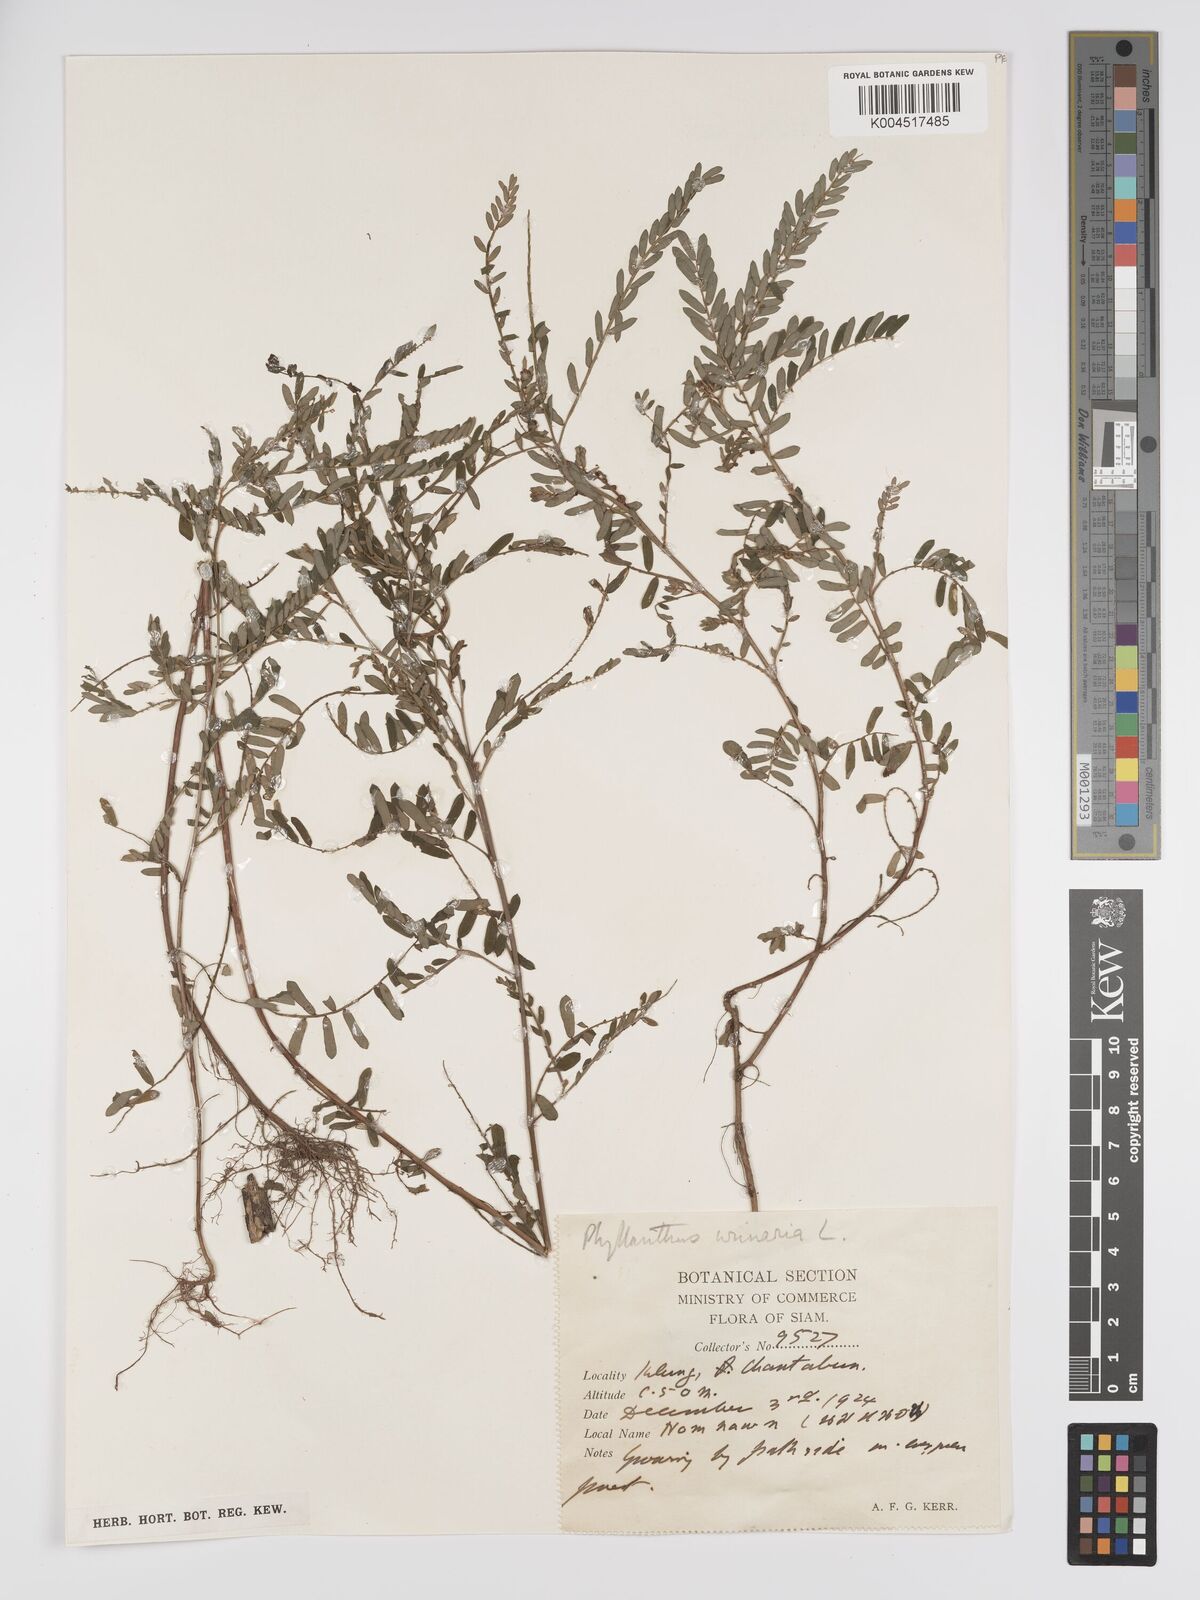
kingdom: Plantae
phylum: Tracheophyta
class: Magnoliopsida
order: Malpighiales
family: Phyllanthaceae
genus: Phyllanthus
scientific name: Phyllanthus urinaria
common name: Chamber bitter
